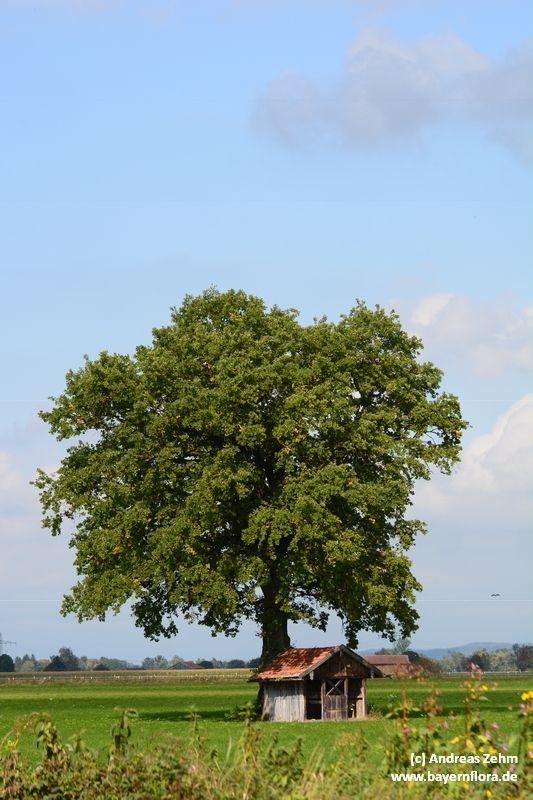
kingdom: Plantae
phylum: Tracheophyta
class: Magnoliopsida
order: Fagales
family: Fagaceae
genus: Quercus
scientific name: Quercus robur
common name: Pedunculate oak
